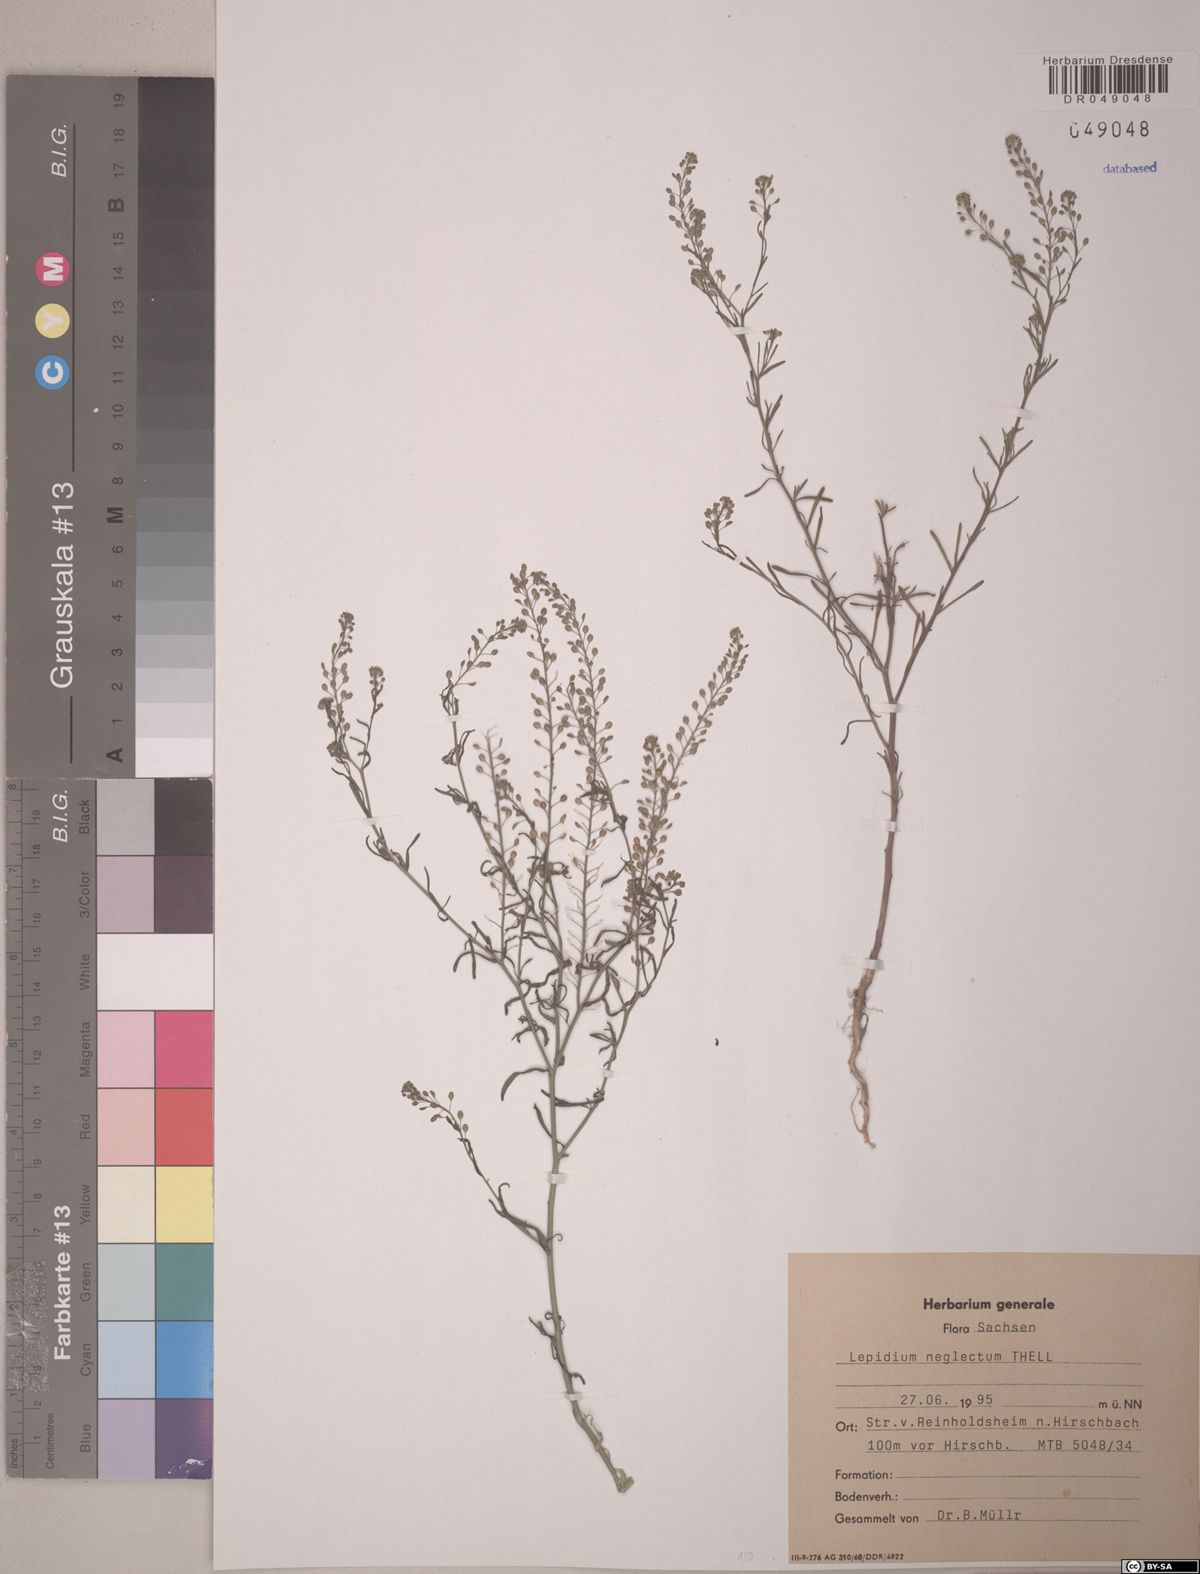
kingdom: Plantae
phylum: Tracheophyta
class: Magnoliopsida
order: Brassicales
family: Brassicaceae
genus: Lepidium
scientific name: Lepidium densiflorum
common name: Miner's pepperwort
